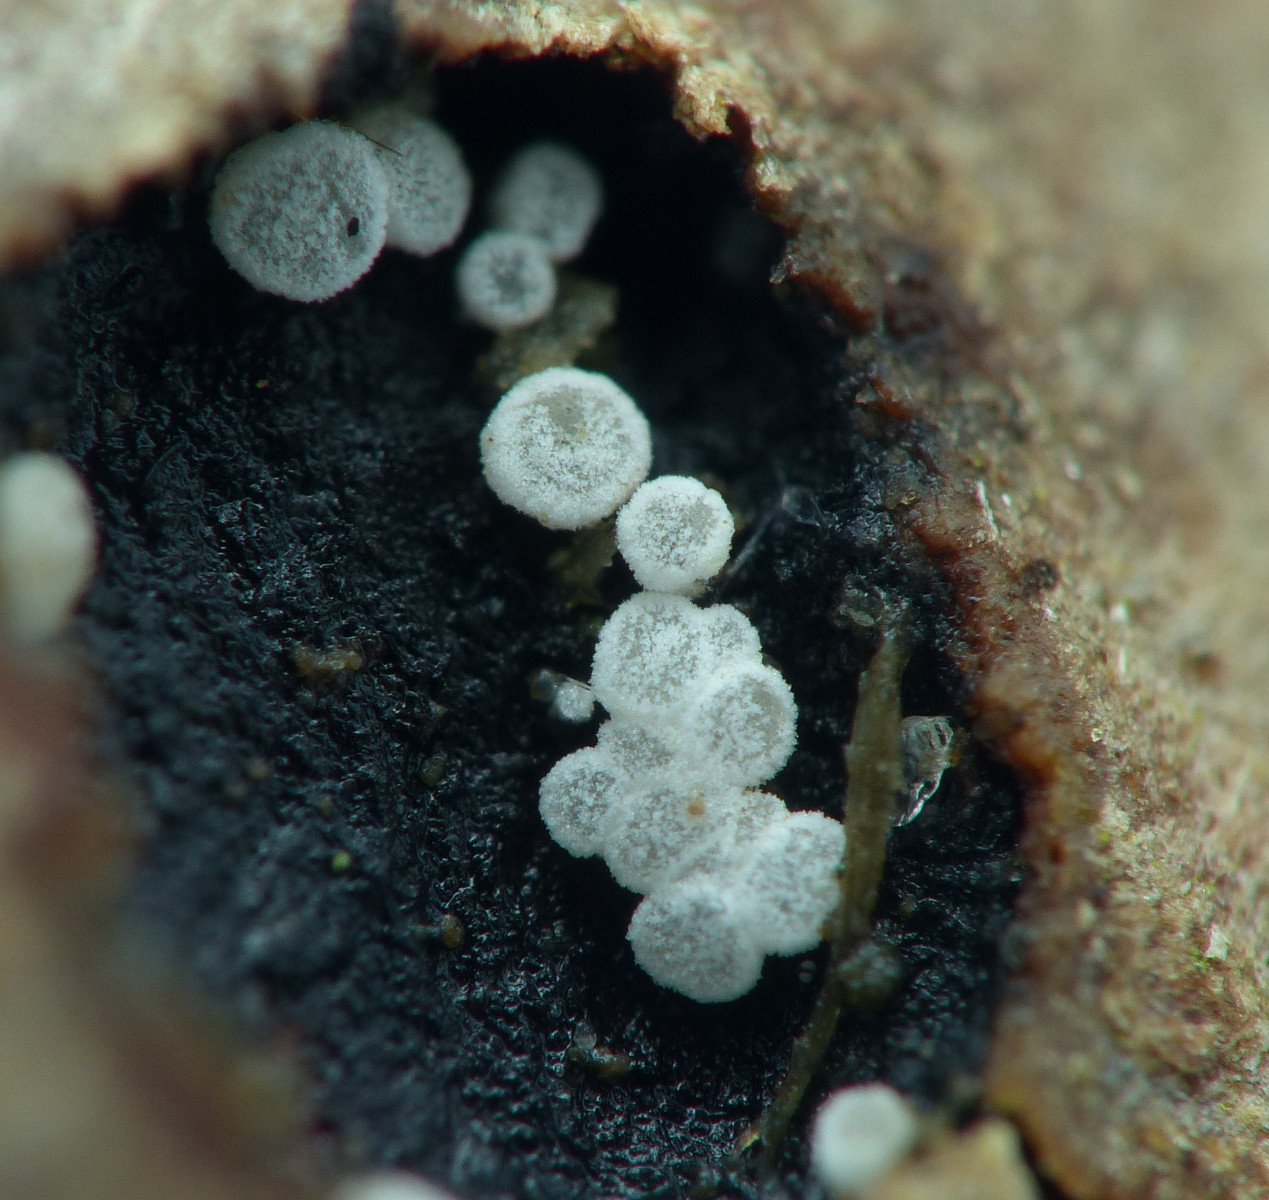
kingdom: Fungi
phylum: Ascomycota
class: Leotiomycetes
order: Helotiales
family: Hyaloscyphaceae
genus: Polydesmia
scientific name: Polydesmia pruinosa
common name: dunskive
